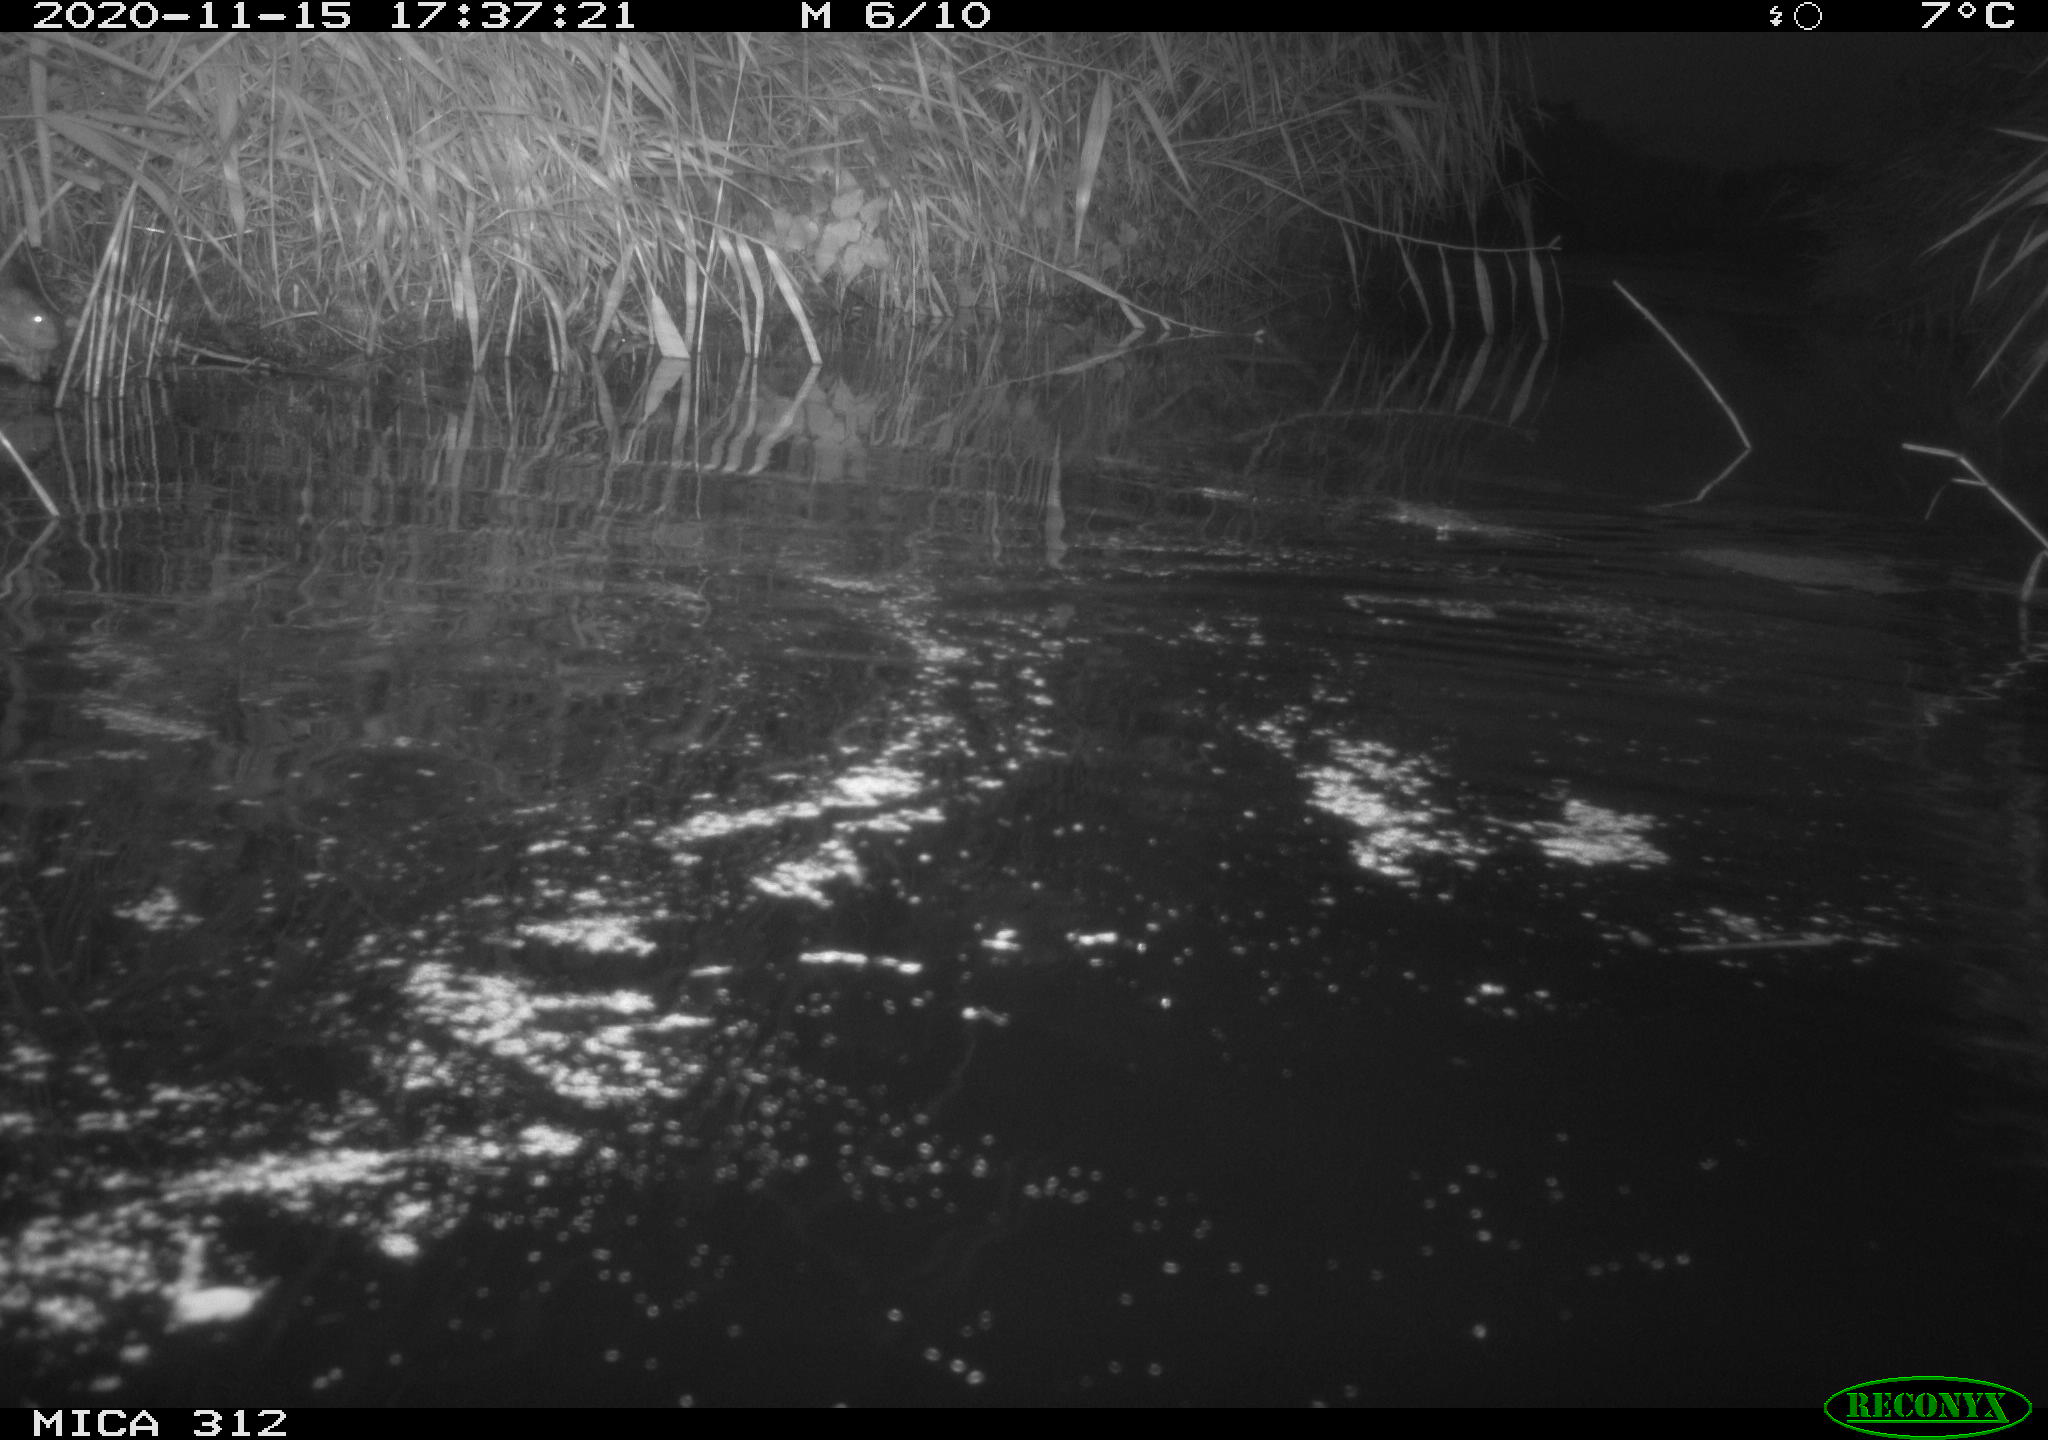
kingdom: Animalia
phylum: Chordata
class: Mammalia
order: Rodentia
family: Muridae
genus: Rattus
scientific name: Rattus norvegicus
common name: Brown rat
